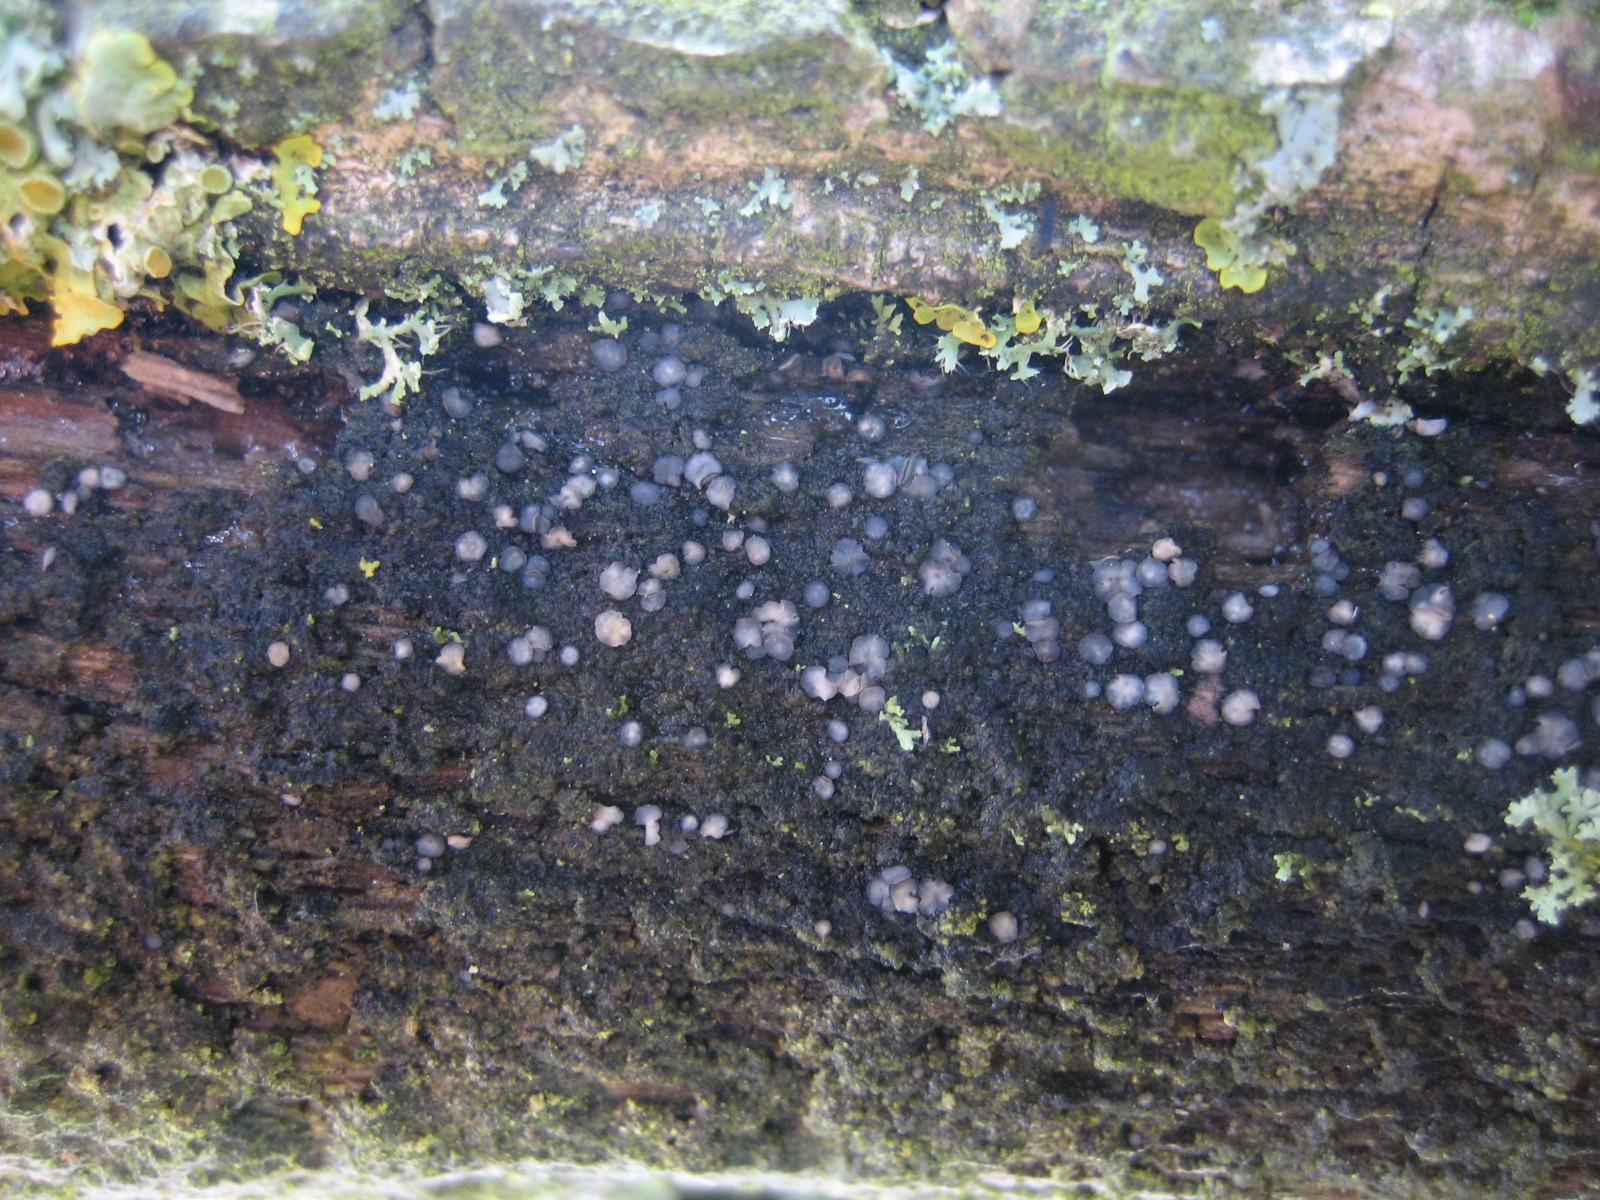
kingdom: Fungi
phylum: Ascomycota
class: Leotiomycetes
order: Helotiales
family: Mollisiaceae
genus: Mollisia
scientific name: Mollisia
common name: gråskive
